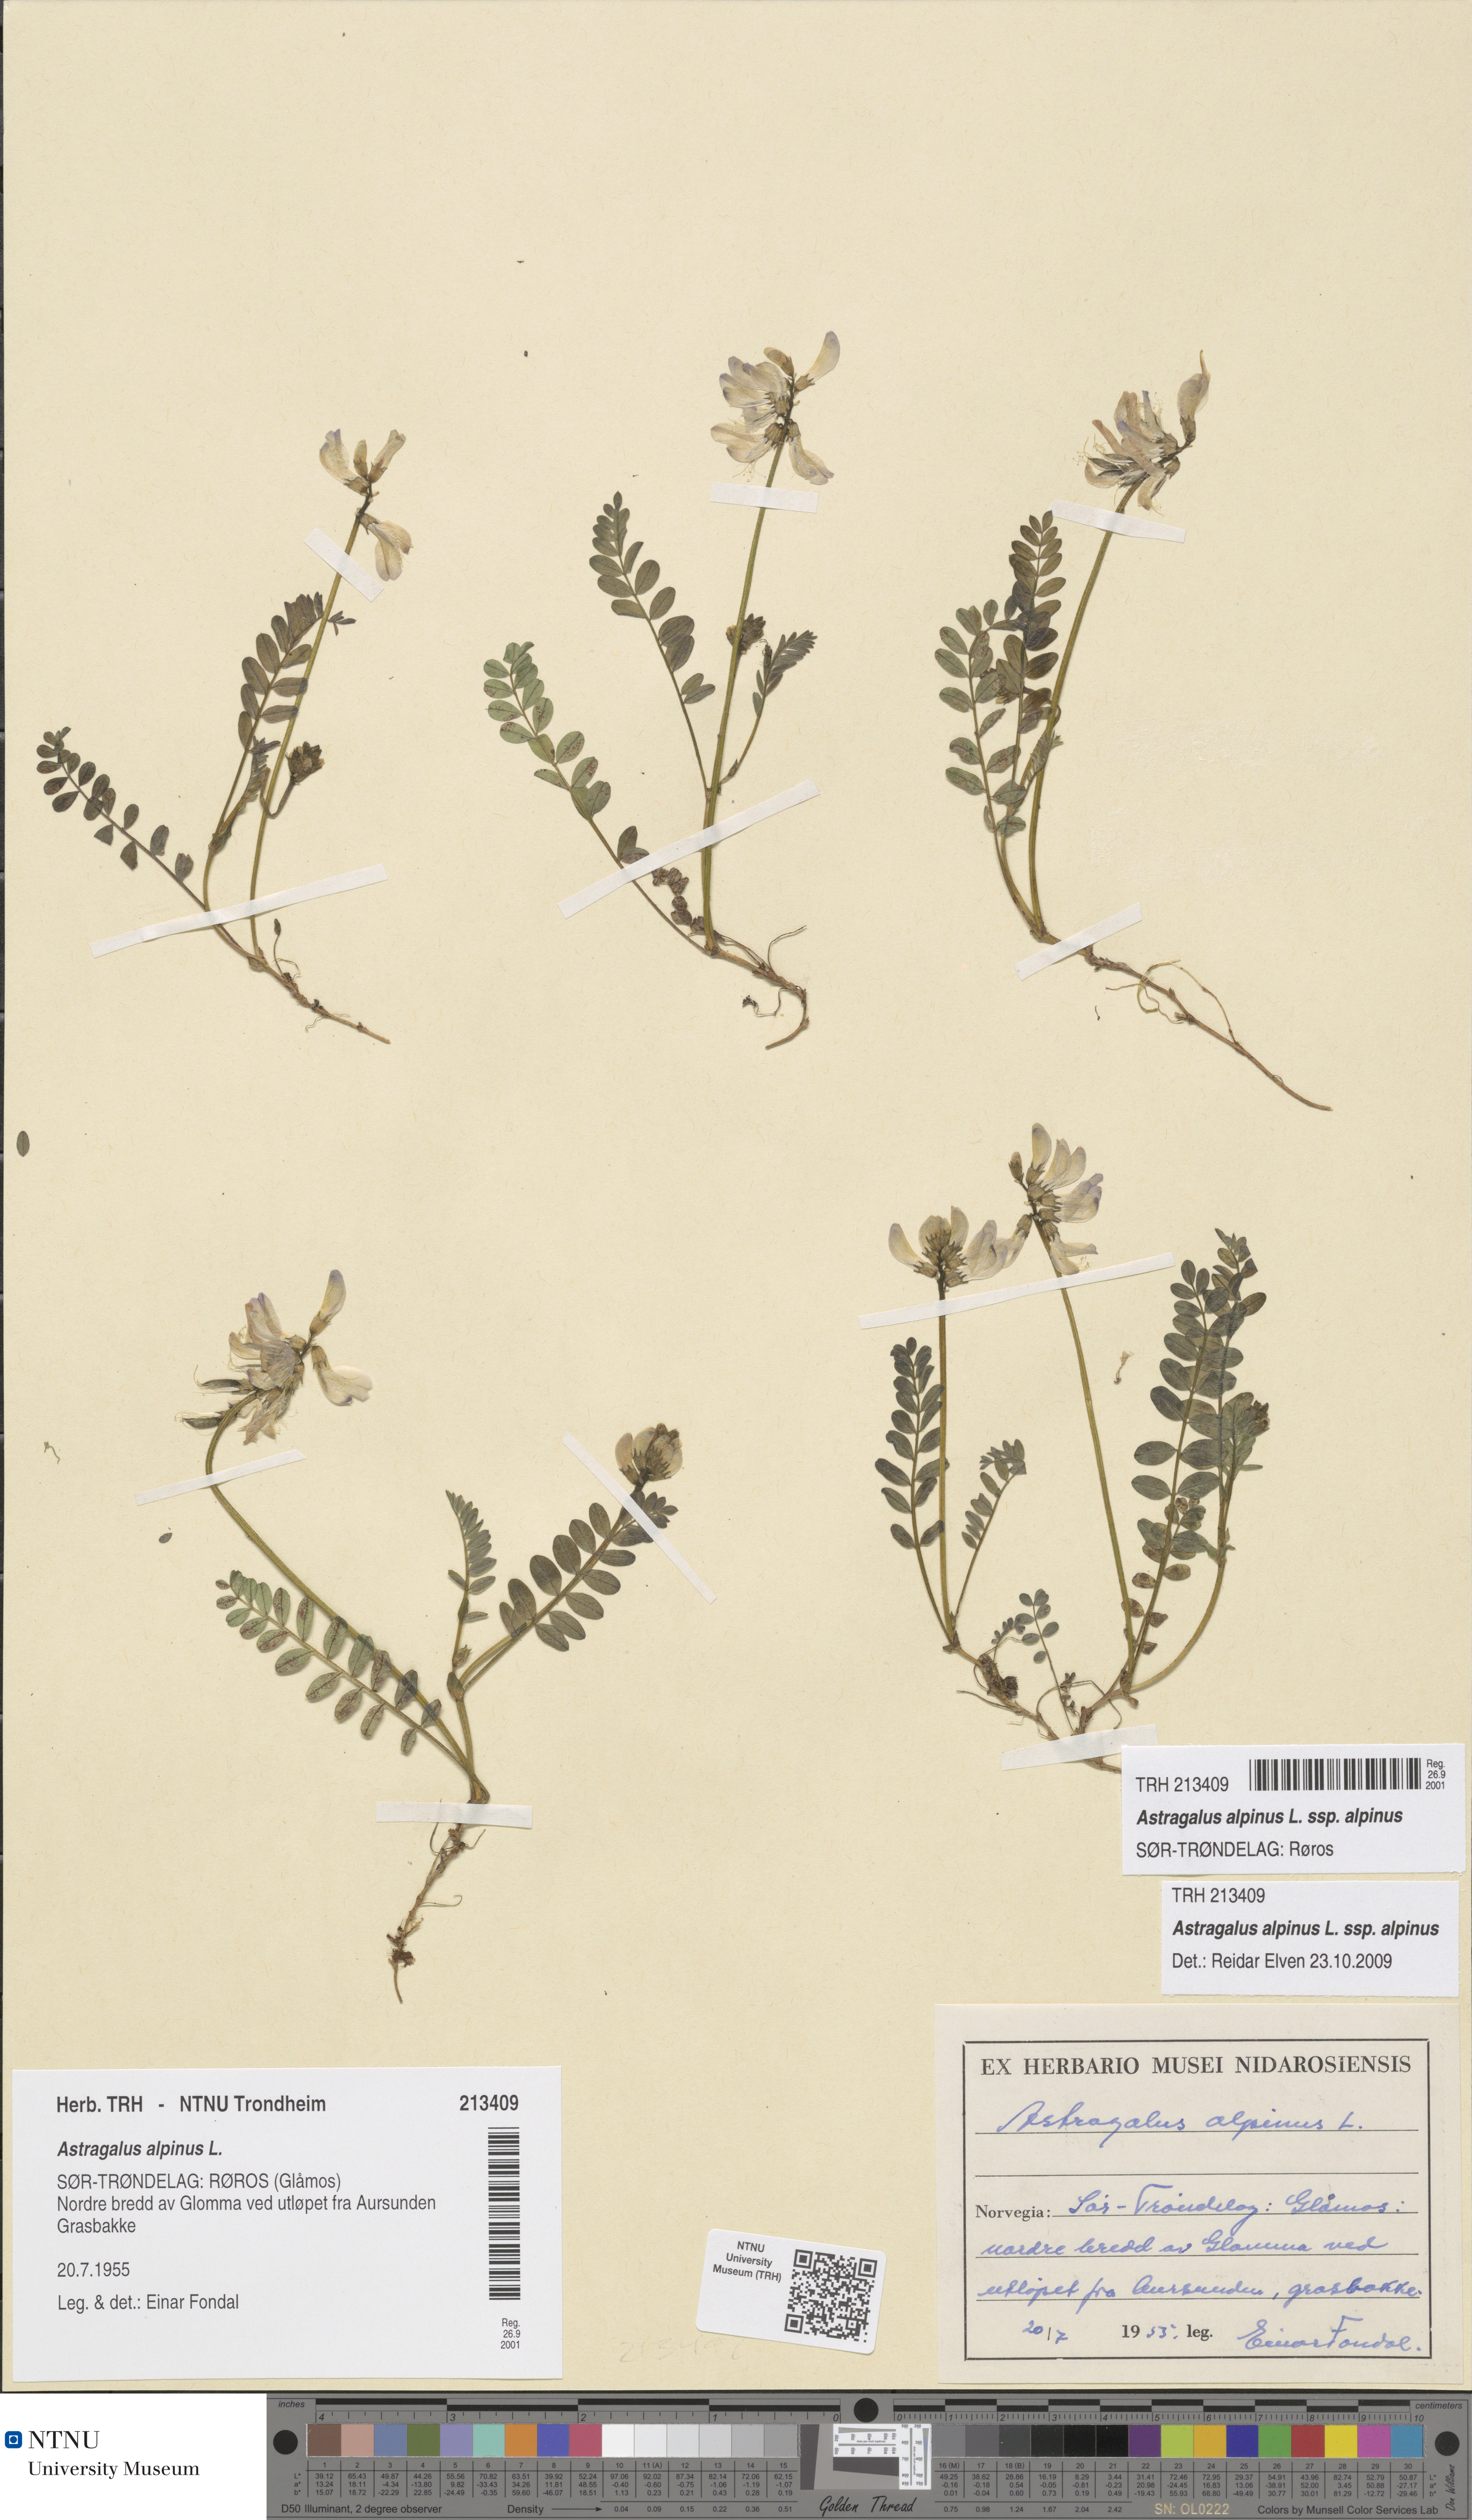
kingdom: Plantae
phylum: Tracheophyta
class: Magnoliopsida
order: Fabales
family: Fabaceae
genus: Astragalus
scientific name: Astragalus alpinus
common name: Alpine milk-vetch
